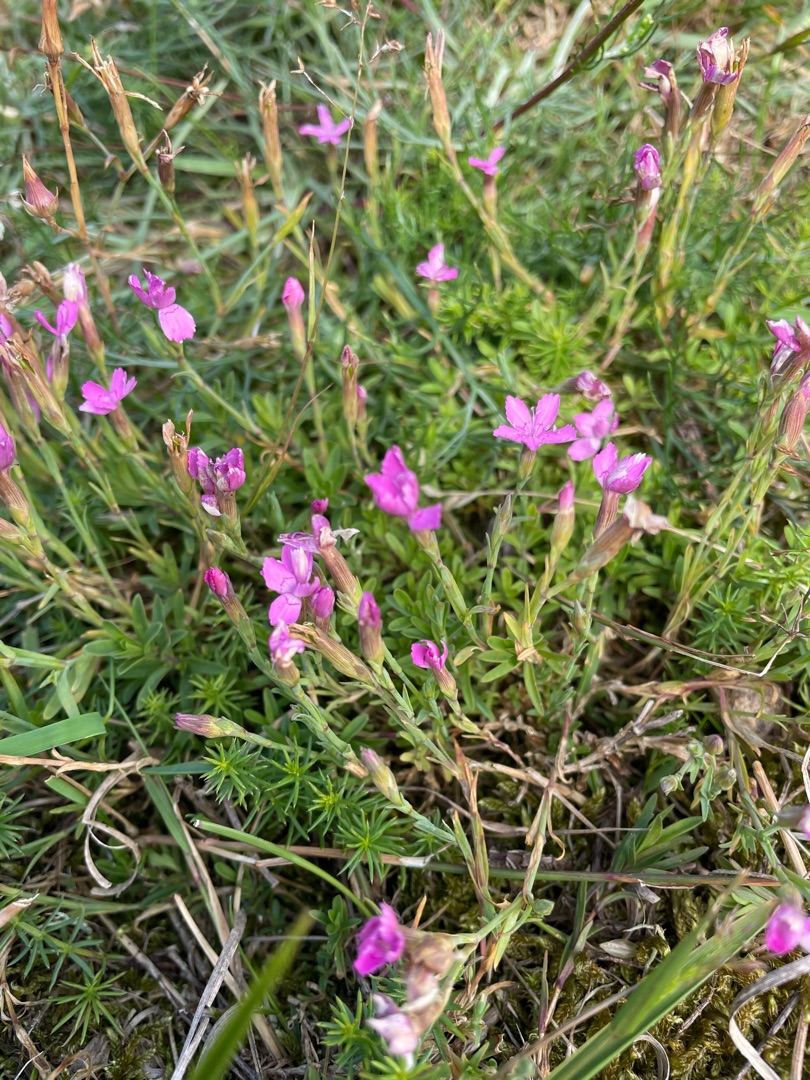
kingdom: Plantae
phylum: Tracheophyta
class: Magnoliopsida
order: Caryophyllales
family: Caryophyllaceae
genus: Dianthus
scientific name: Dianthus deltoides
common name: Bakke-nellike
